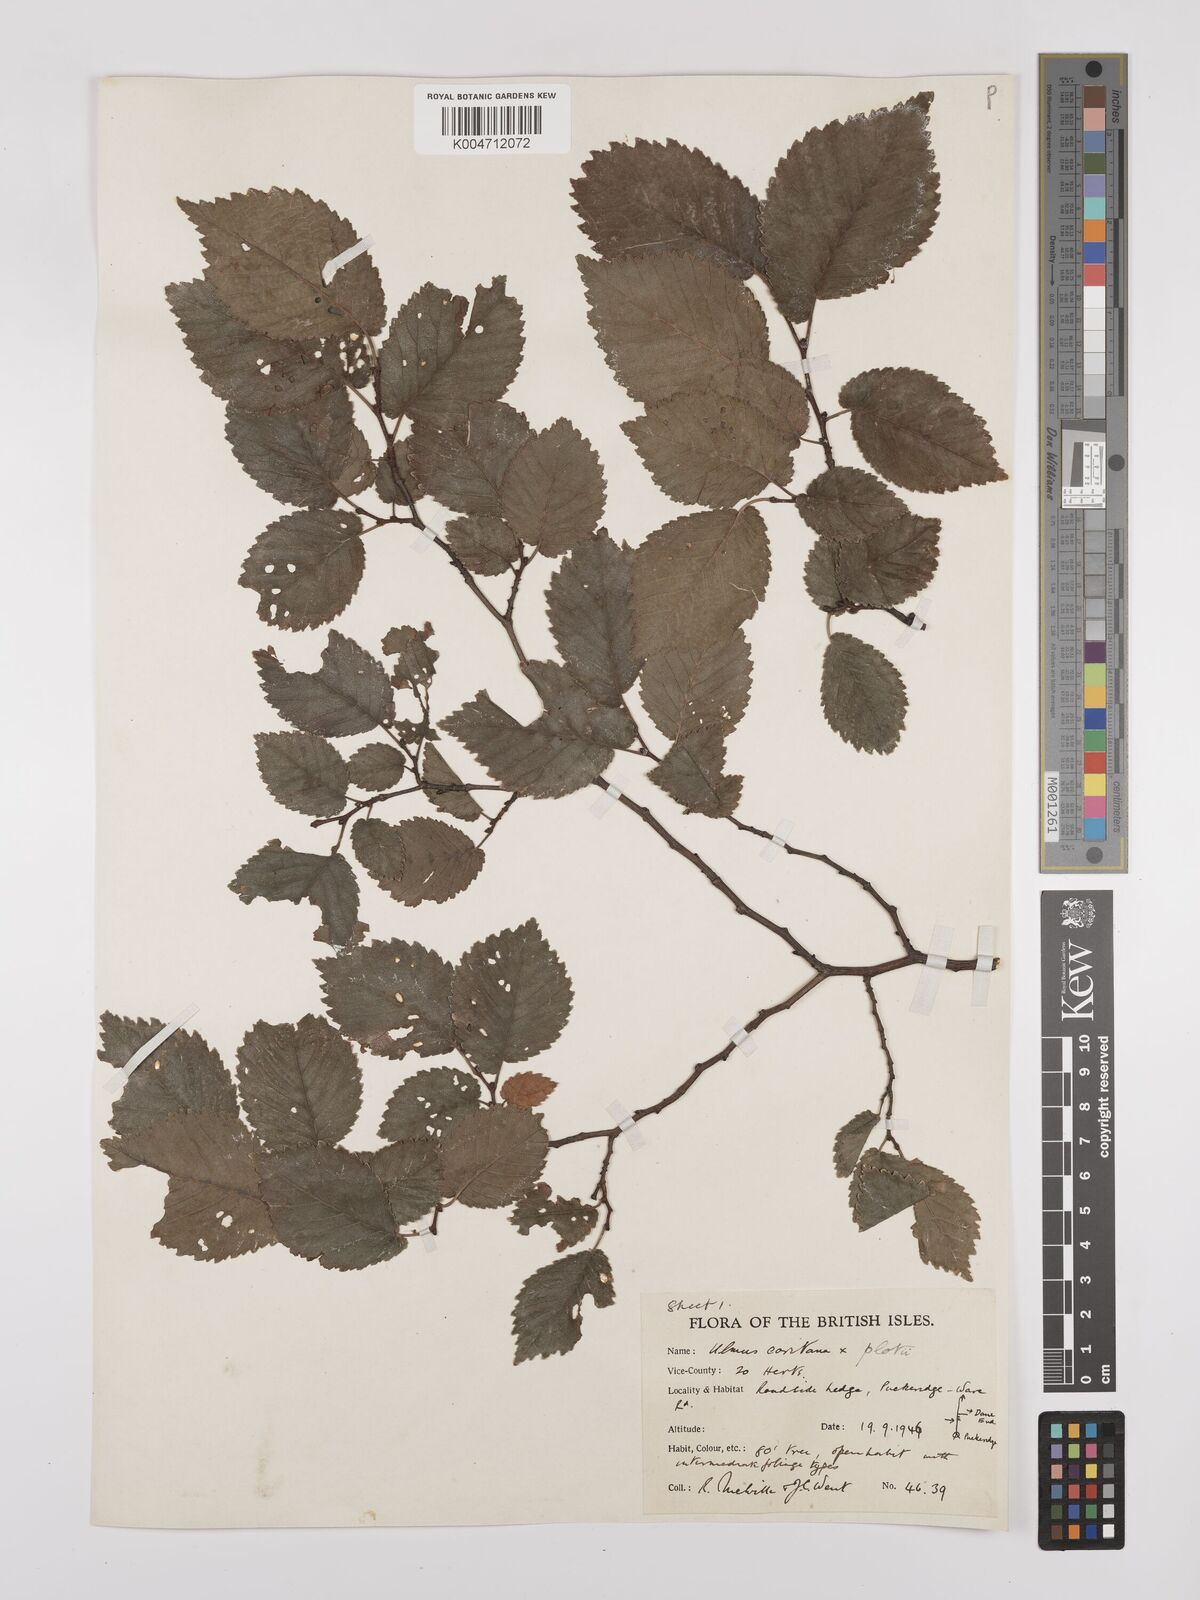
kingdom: Plantae
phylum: Tracheophyta
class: Magnoliopsida
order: Rosales
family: Ulmaceae
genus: Ulmus
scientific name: Ulmus minor
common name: Small-leaved elm
